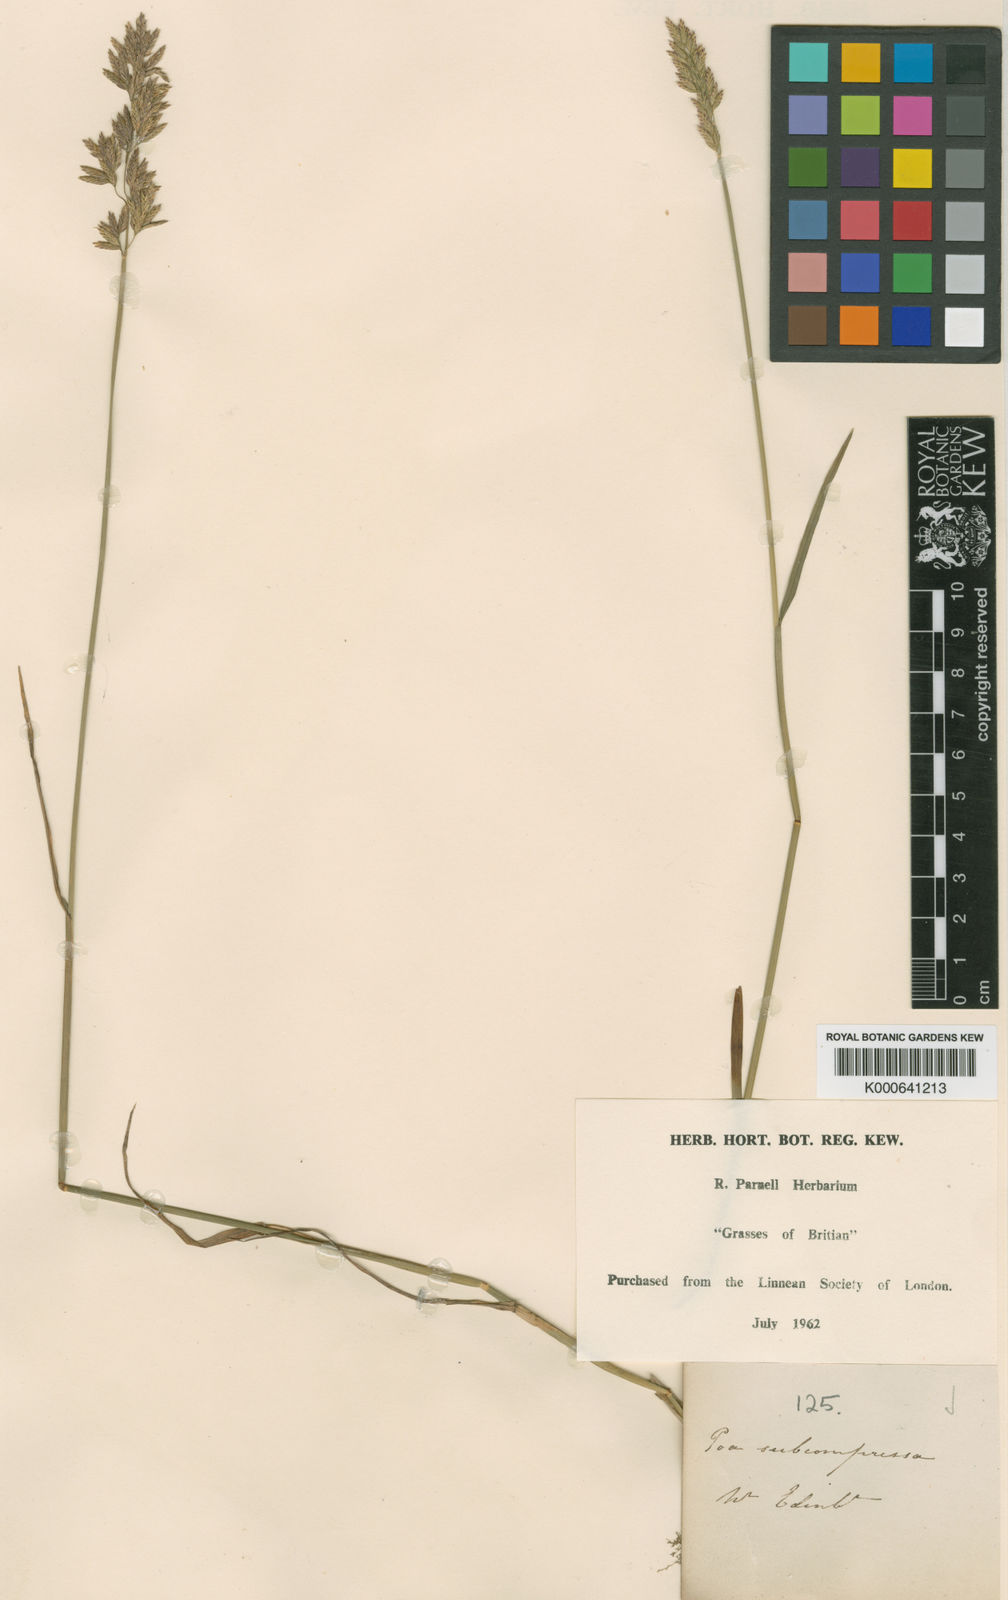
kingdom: Plantae
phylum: Tracheophyta
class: Liliopsida
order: Poales
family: Poaceae
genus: Poa
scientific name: Poa compressa
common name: Canada bluegrass
